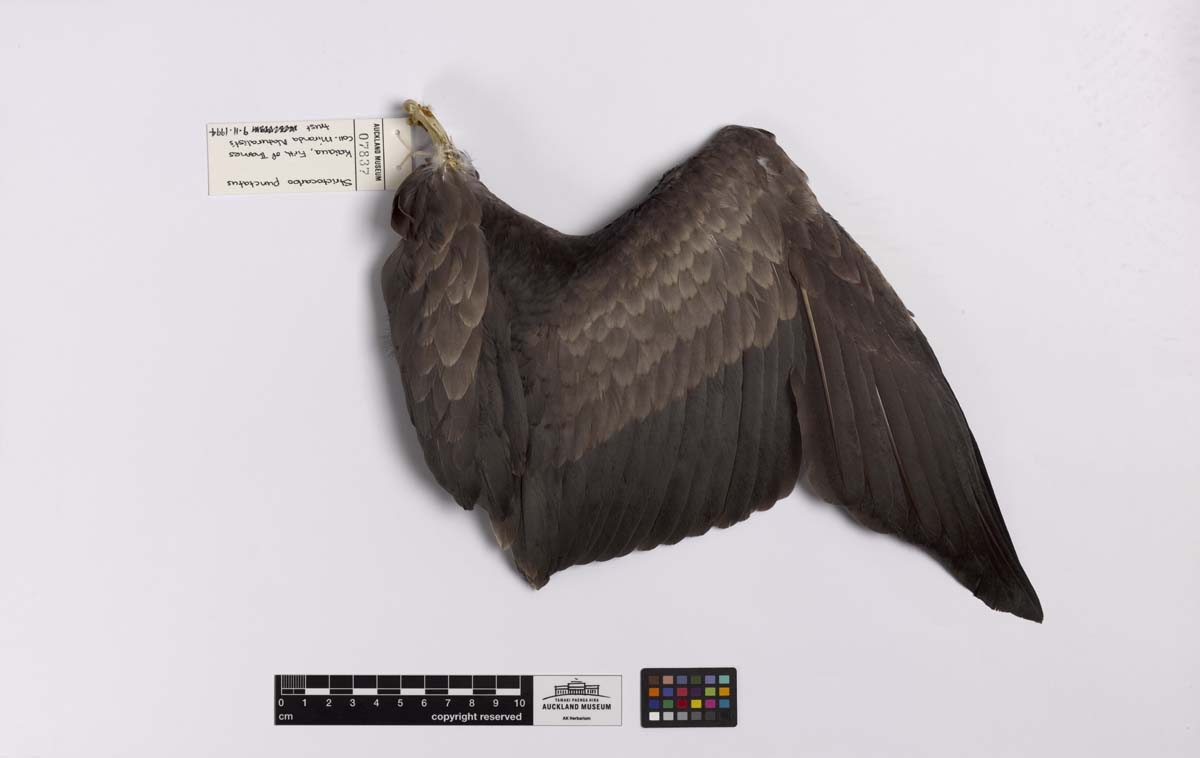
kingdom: Animalia
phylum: Chordata
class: Aves
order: Suliformes
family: Phalacrocoracidae
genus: Phalacrocorax
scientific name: Phalacrocorax punctatus
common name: Spotted shag
